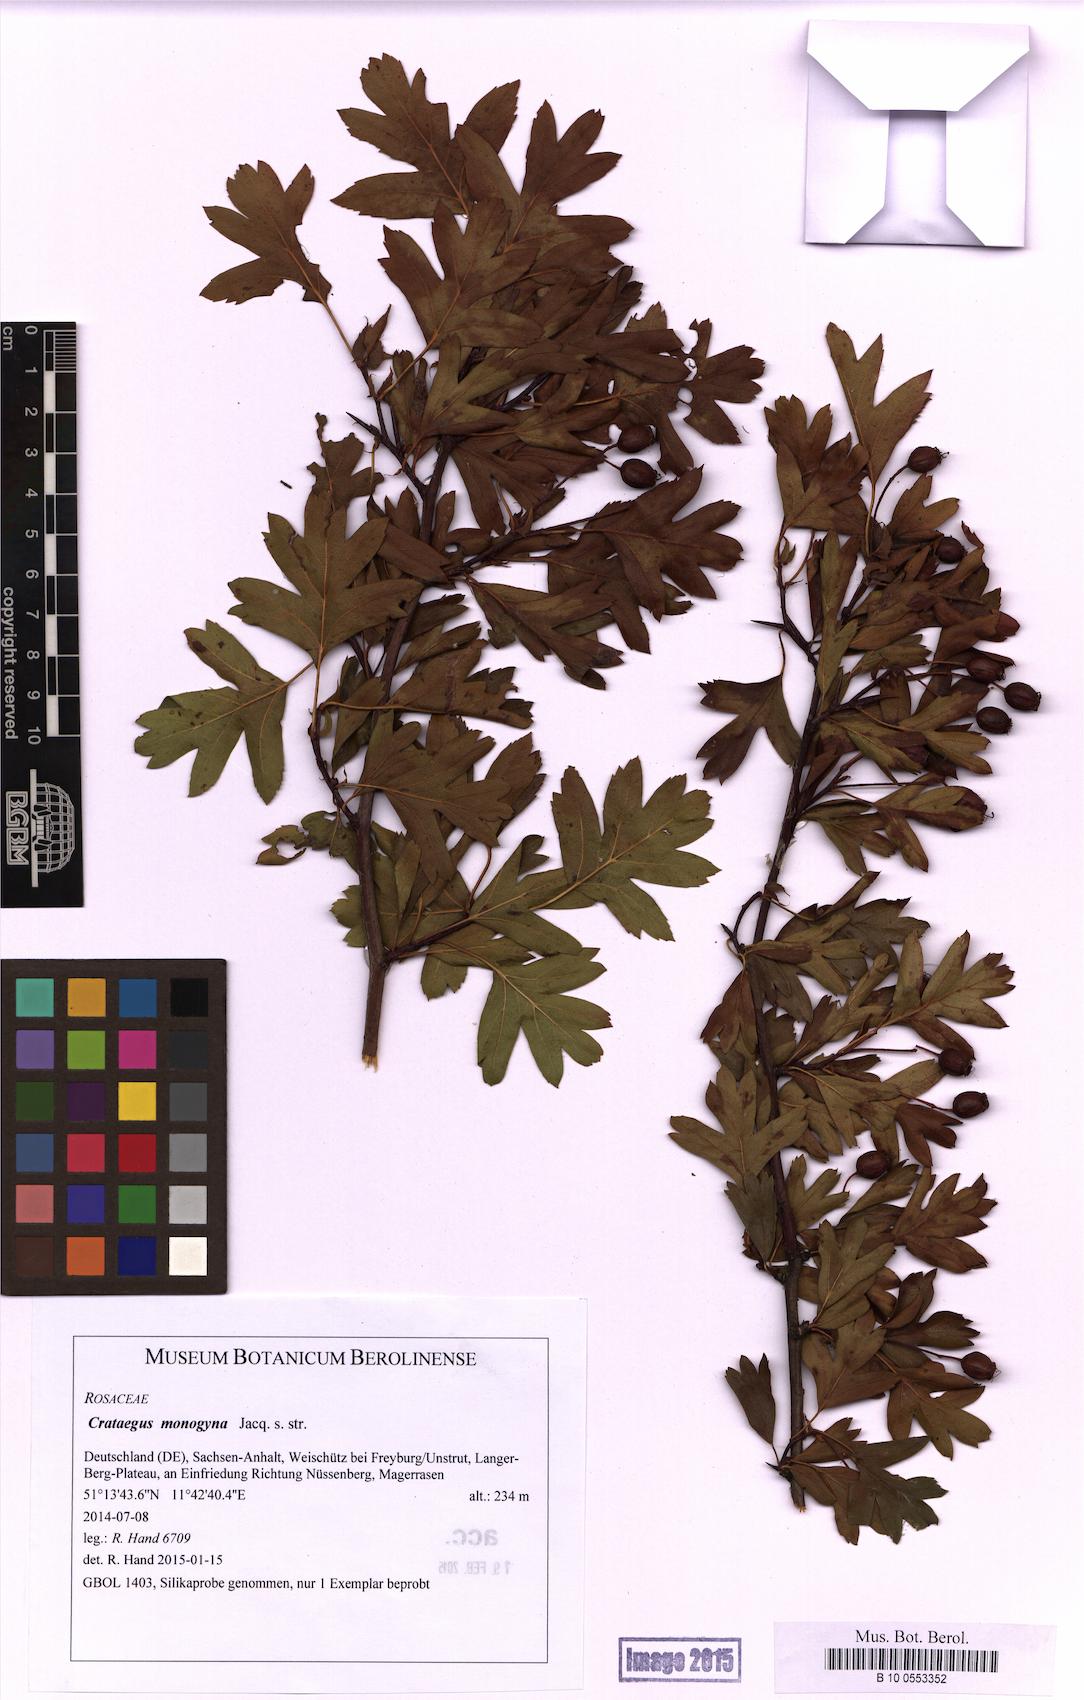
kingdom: Plantae
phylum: Tracheophyta
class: Magnoliopsida
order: Rosales
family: Rosaceae
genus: Crataegus
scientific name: Crataegus monogyna
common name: Hawthorn
